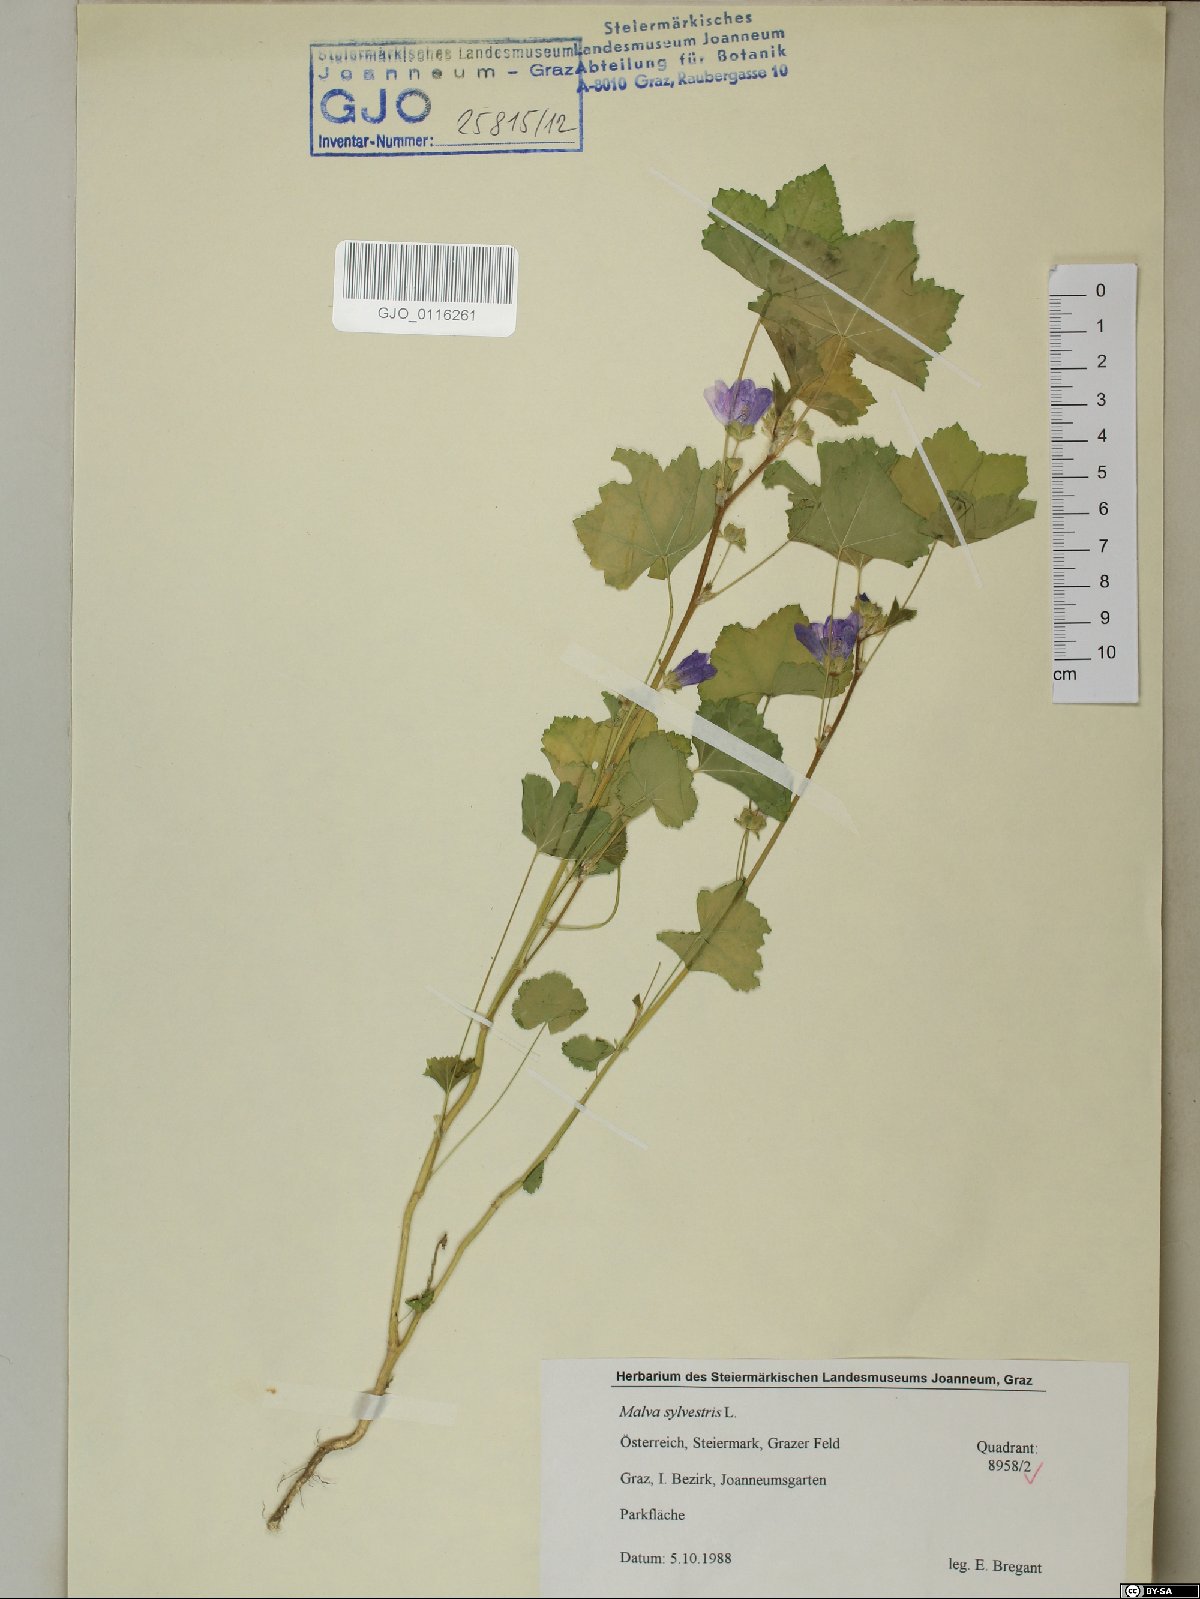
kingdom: Plantae
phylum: Tracheophyta
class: Magnoliopsida
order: Malvales
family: Malvaceae
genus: Malva
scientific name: Malva sylvestris
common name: Common mallow
